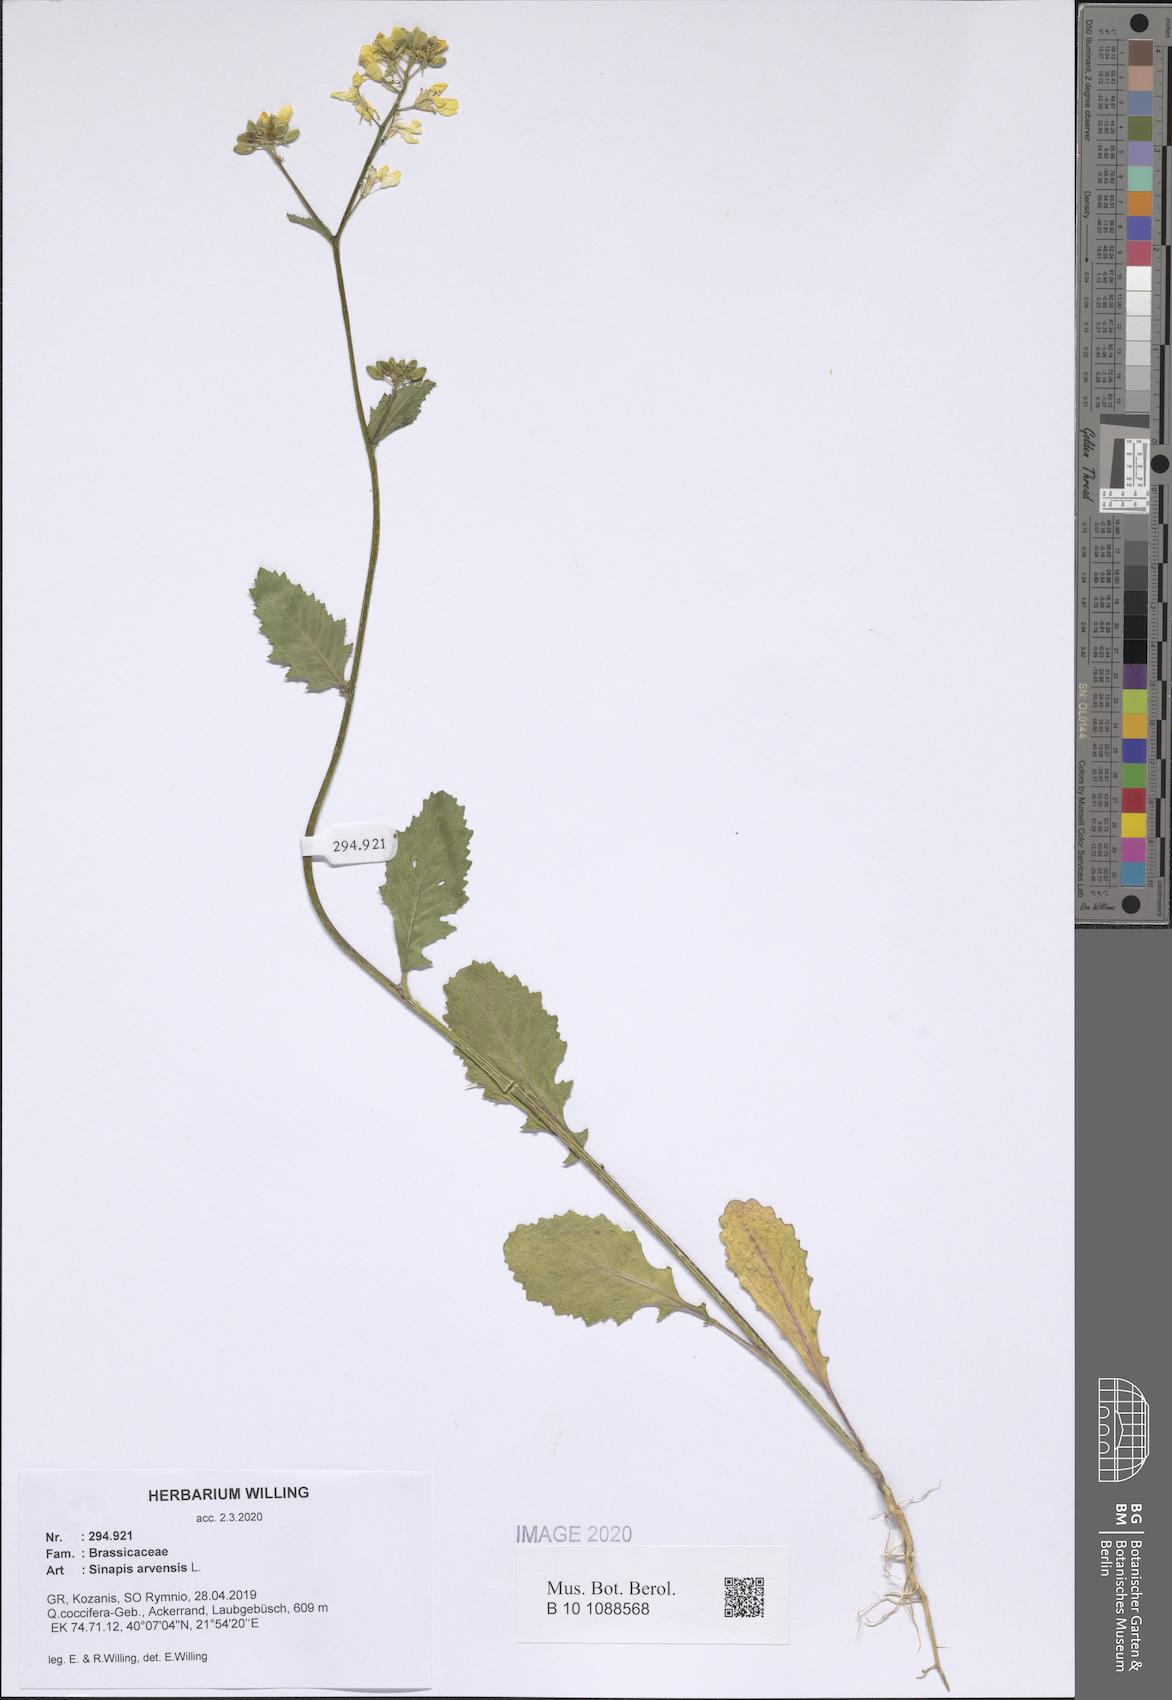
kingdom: Plantae
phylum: Tracheophyta
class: Magnoliopsida
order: Brassicales
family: Brassicaceae
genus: Sinapis
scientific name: Sinapis arvensis
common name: Charlock
